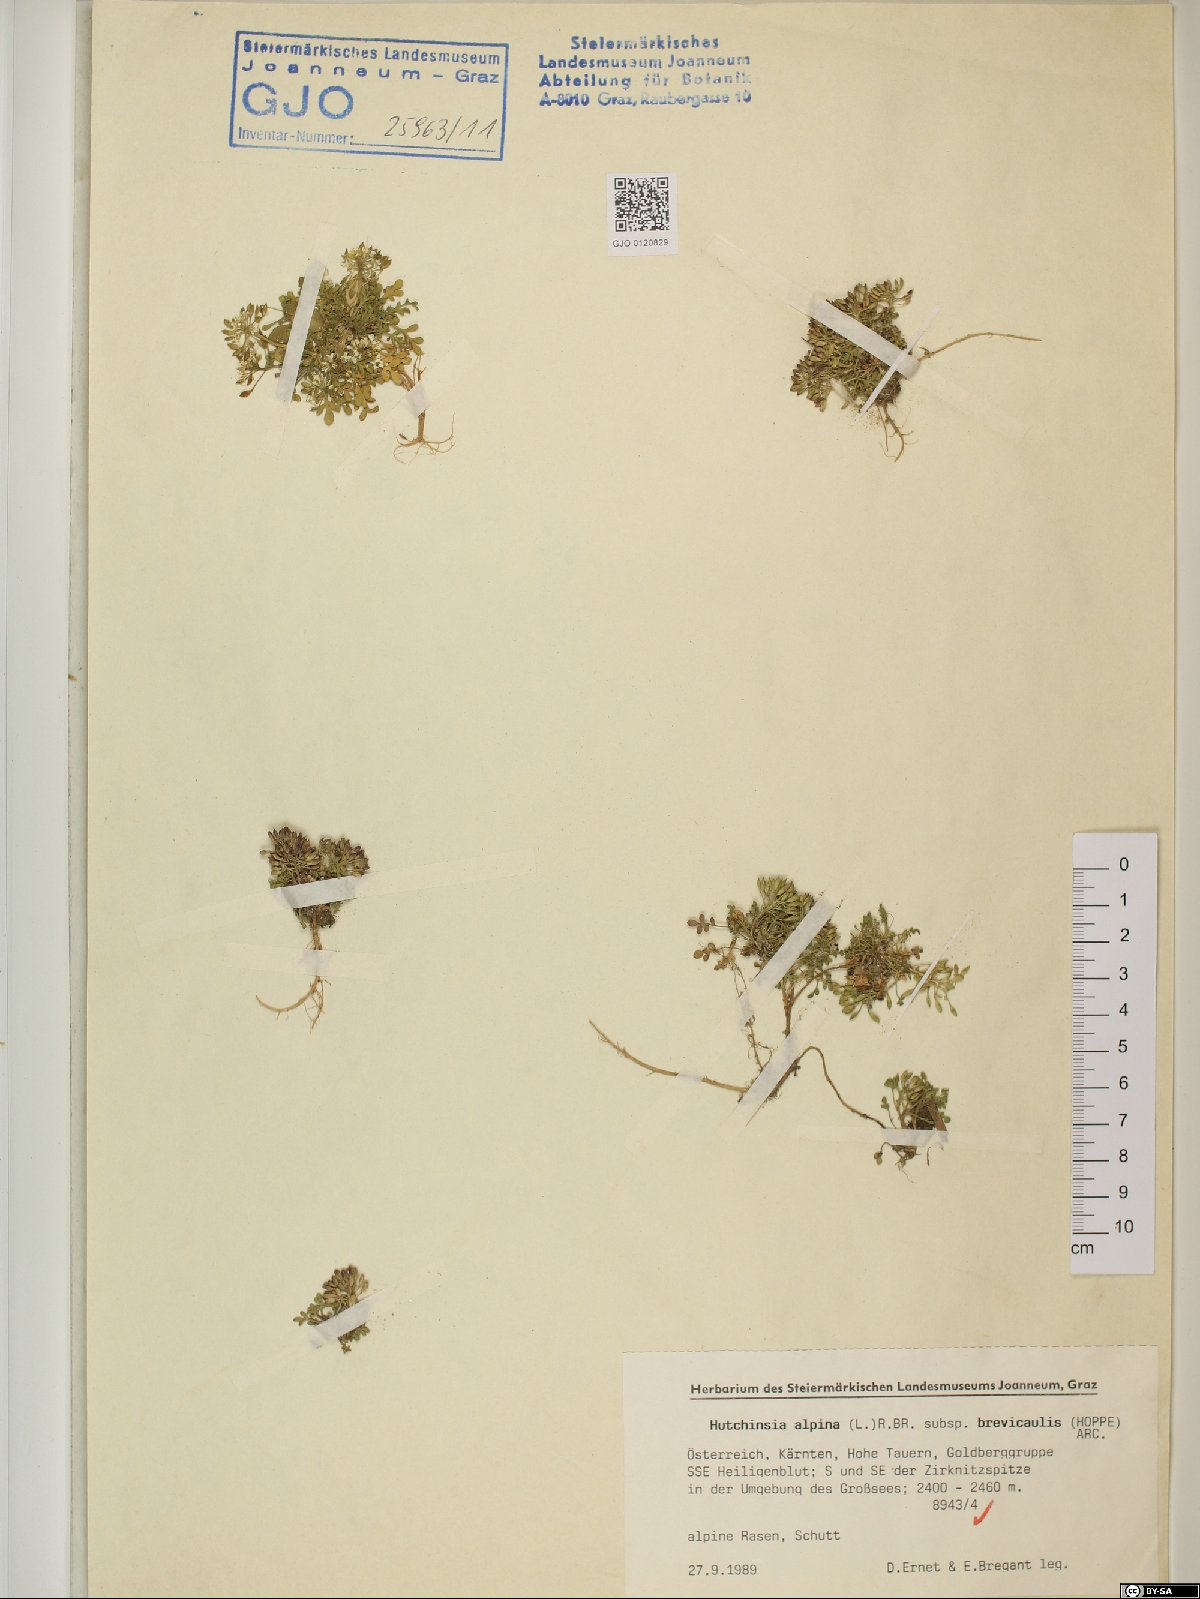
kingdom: Plantae
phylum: Tracheophyta
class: Magnoliopsida
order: Brassicales
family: Brassicaceae
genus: Hornungia
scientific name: Hornungia alpina
